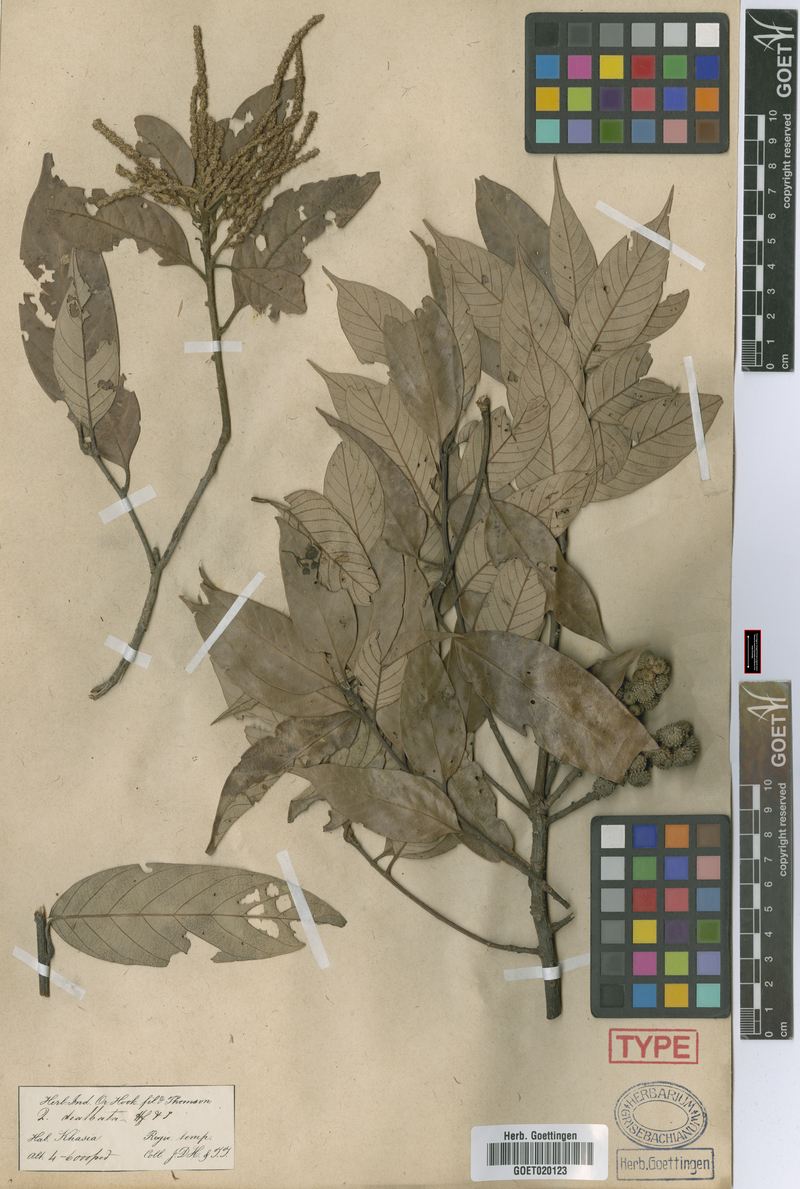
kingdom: Plantae
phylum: Tracheophyta
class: Magnoliopsida
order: Fagales
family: Fagaceae
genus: Lithocarpus
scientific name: Lithocarpus dealbatus
